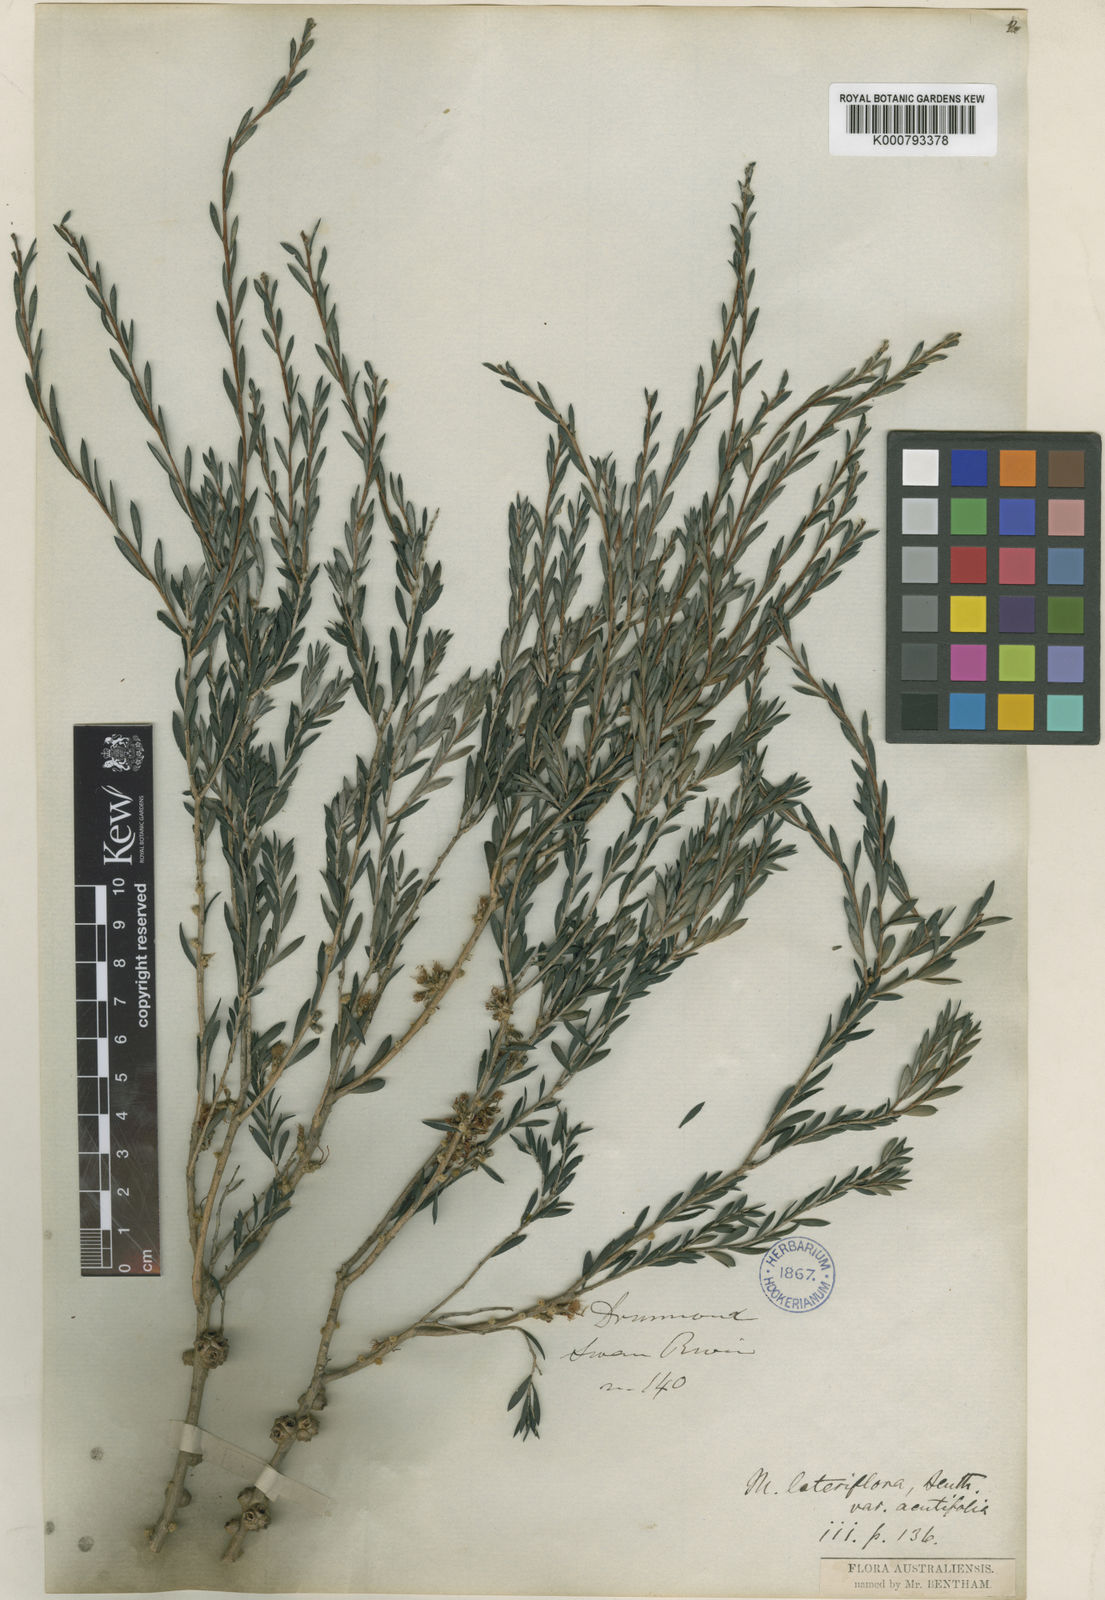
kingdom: Plantae
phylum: Tracheophyta
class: Magnoliopsida
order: Myrtales
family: Myrtaceae
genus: Melaleuca
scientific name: Melaleuca acutifolia
